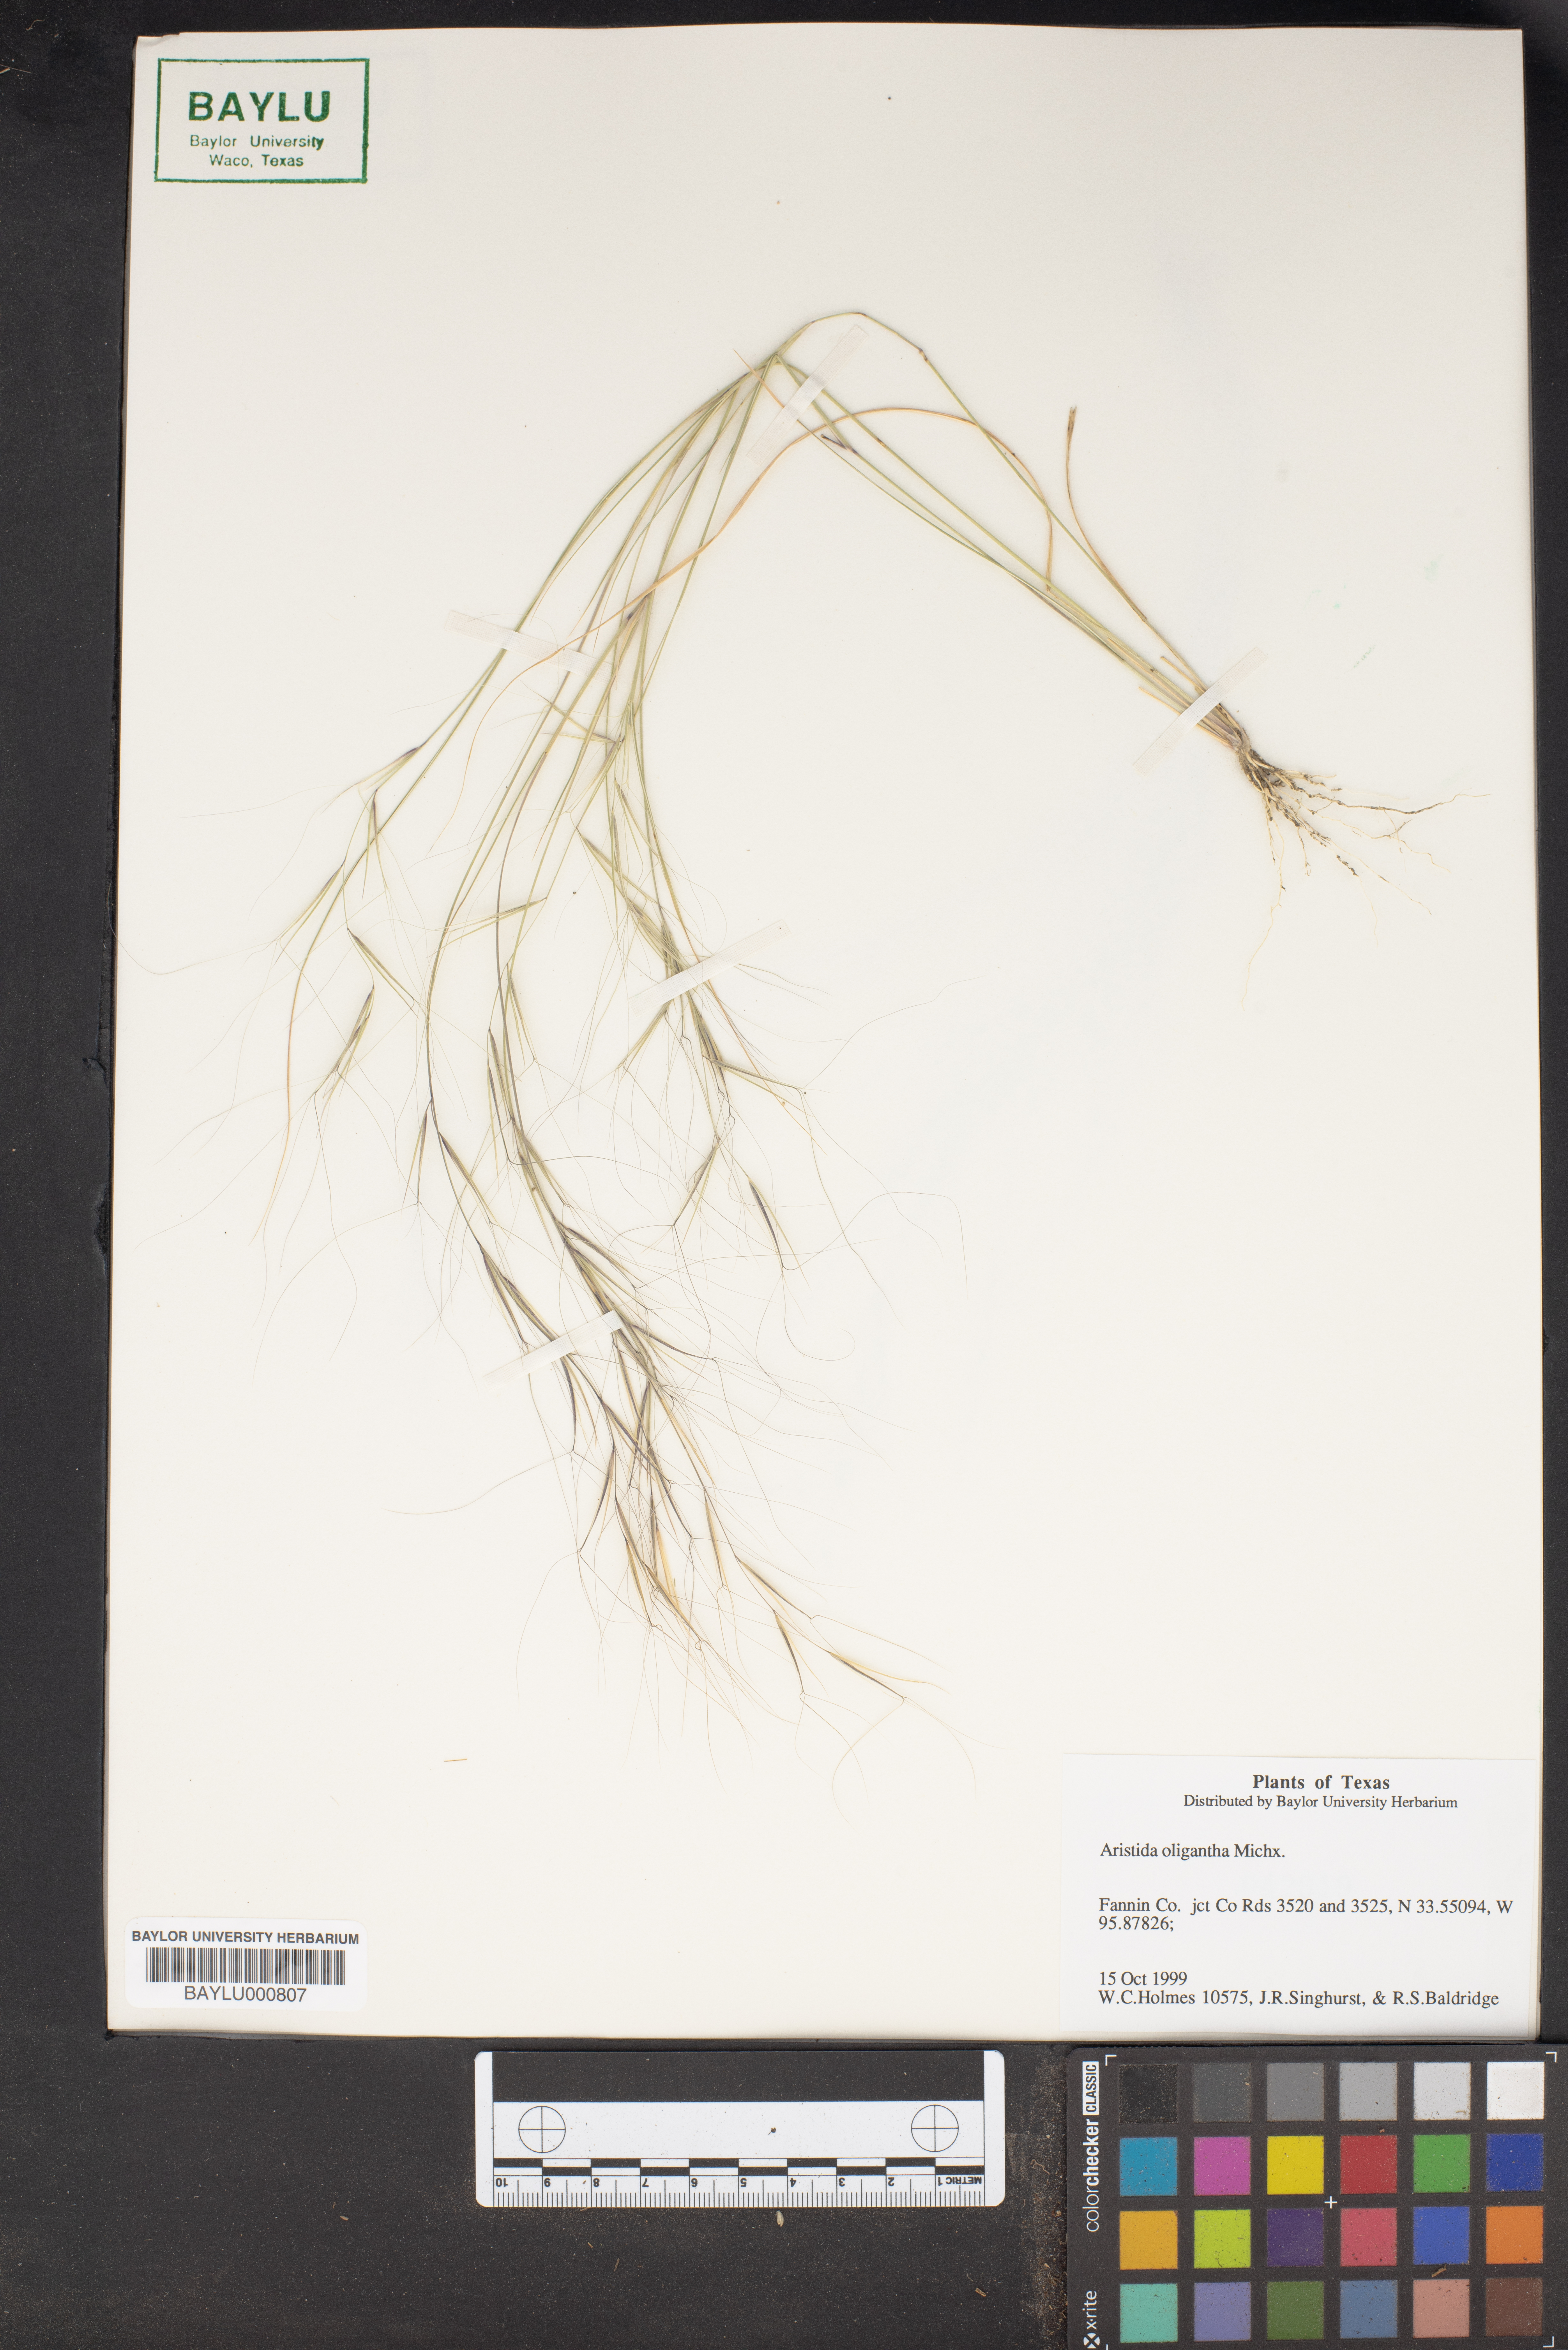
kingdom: Plantae
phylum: Tracheophyta
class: Liliopsida
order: Poales
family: Poaceae
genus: Aristida
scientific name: Aristida oligantha
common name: Few-flowered aristida
